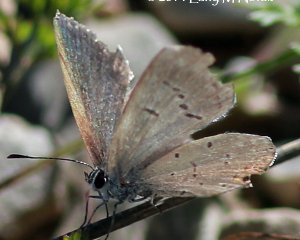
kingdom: Animalia
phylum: Arthropoda
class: Insecta
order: Lepidoptera
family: Lycaenidae
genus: Elkalyce
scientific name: Elkalyce comyntas
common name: Eastern Tailed-Blue
